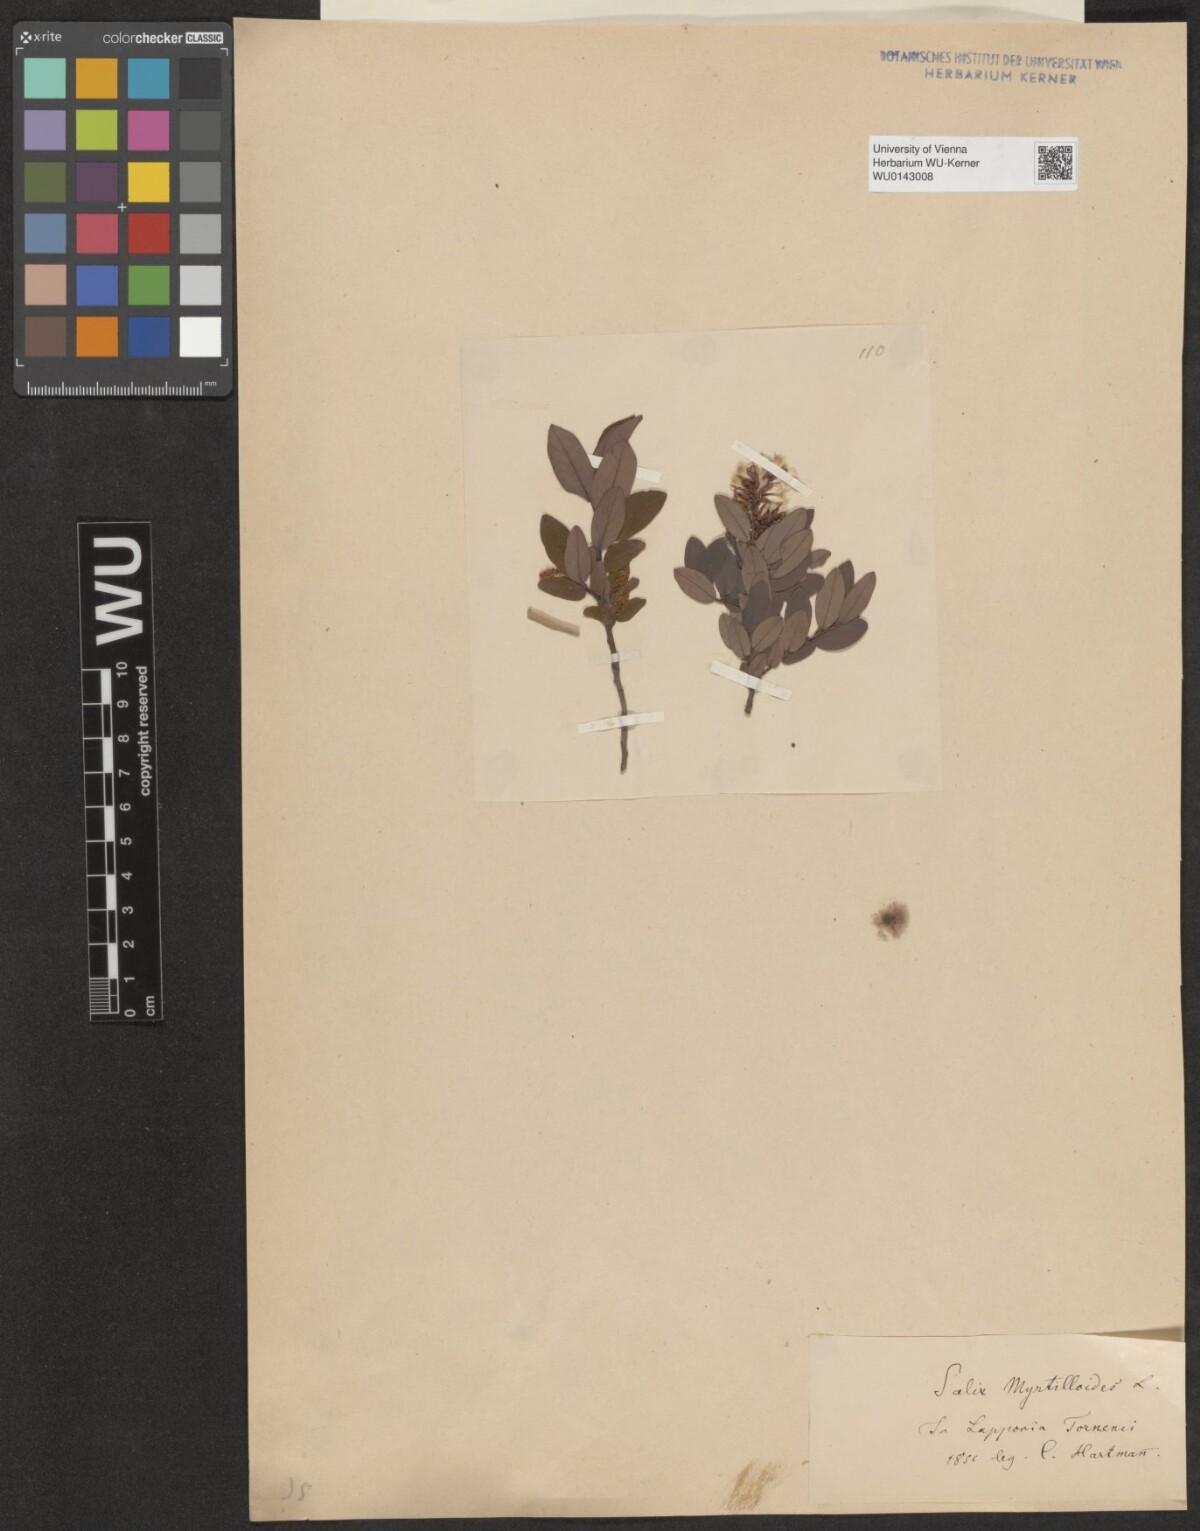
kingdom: Plantae
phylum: Tracheophyta
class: Magnoliopsida
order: Malpighiales
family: Salicaceae
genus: Salix
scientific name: Salix myrtilloides
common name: Myrtle-leaved willow
